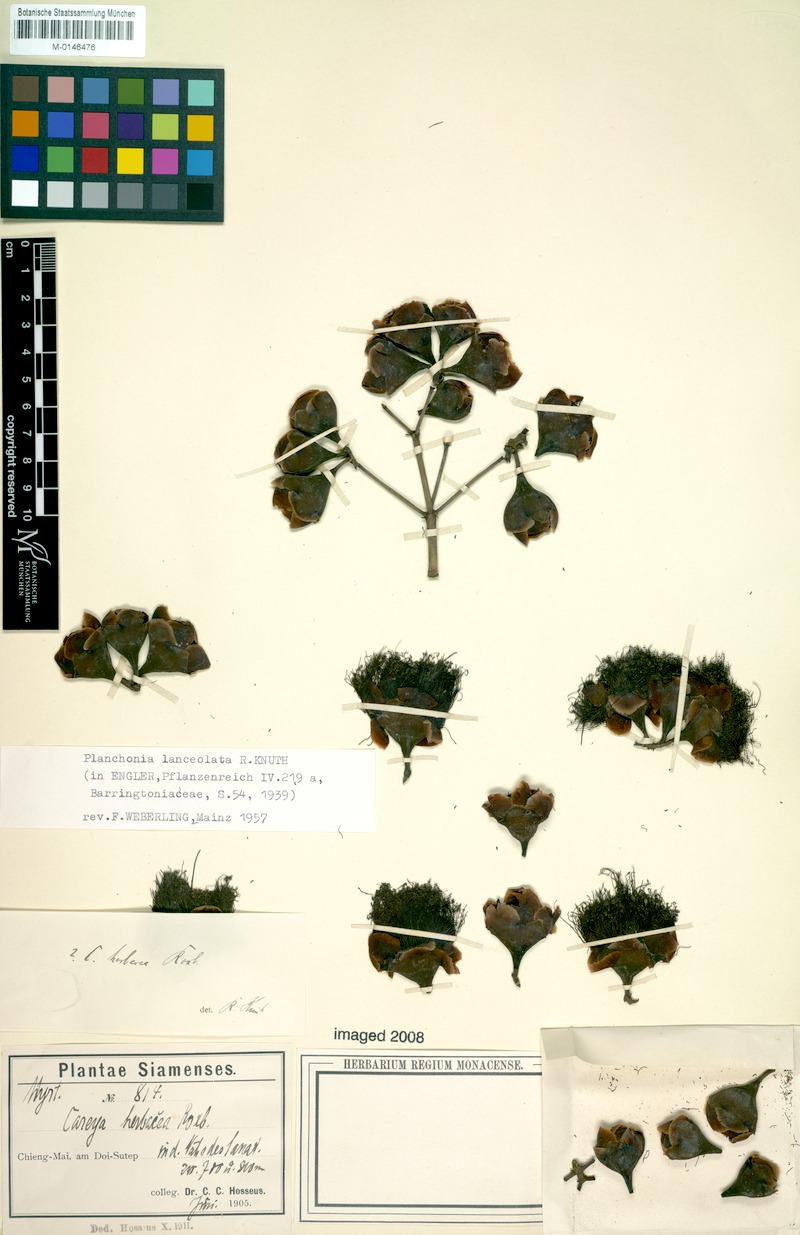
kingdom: Plantae
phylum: Tracheophyta
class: Magnoliopsida
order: Ericales
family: Lecythidaceae
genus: Barringtonia
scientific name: Barringtonia lanceolata
